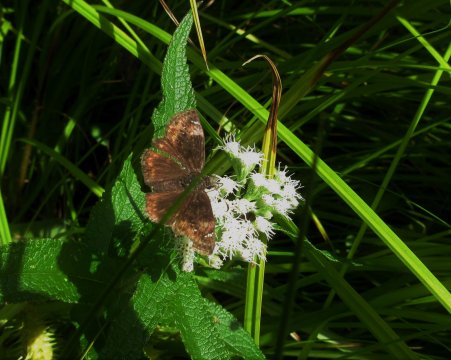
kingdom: Animalia
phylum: Arthropoda
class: Insecta
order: Lepidoptera
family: Hesperiidae
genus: Gesta
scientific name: Gesta
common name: Columbine Duskywing
